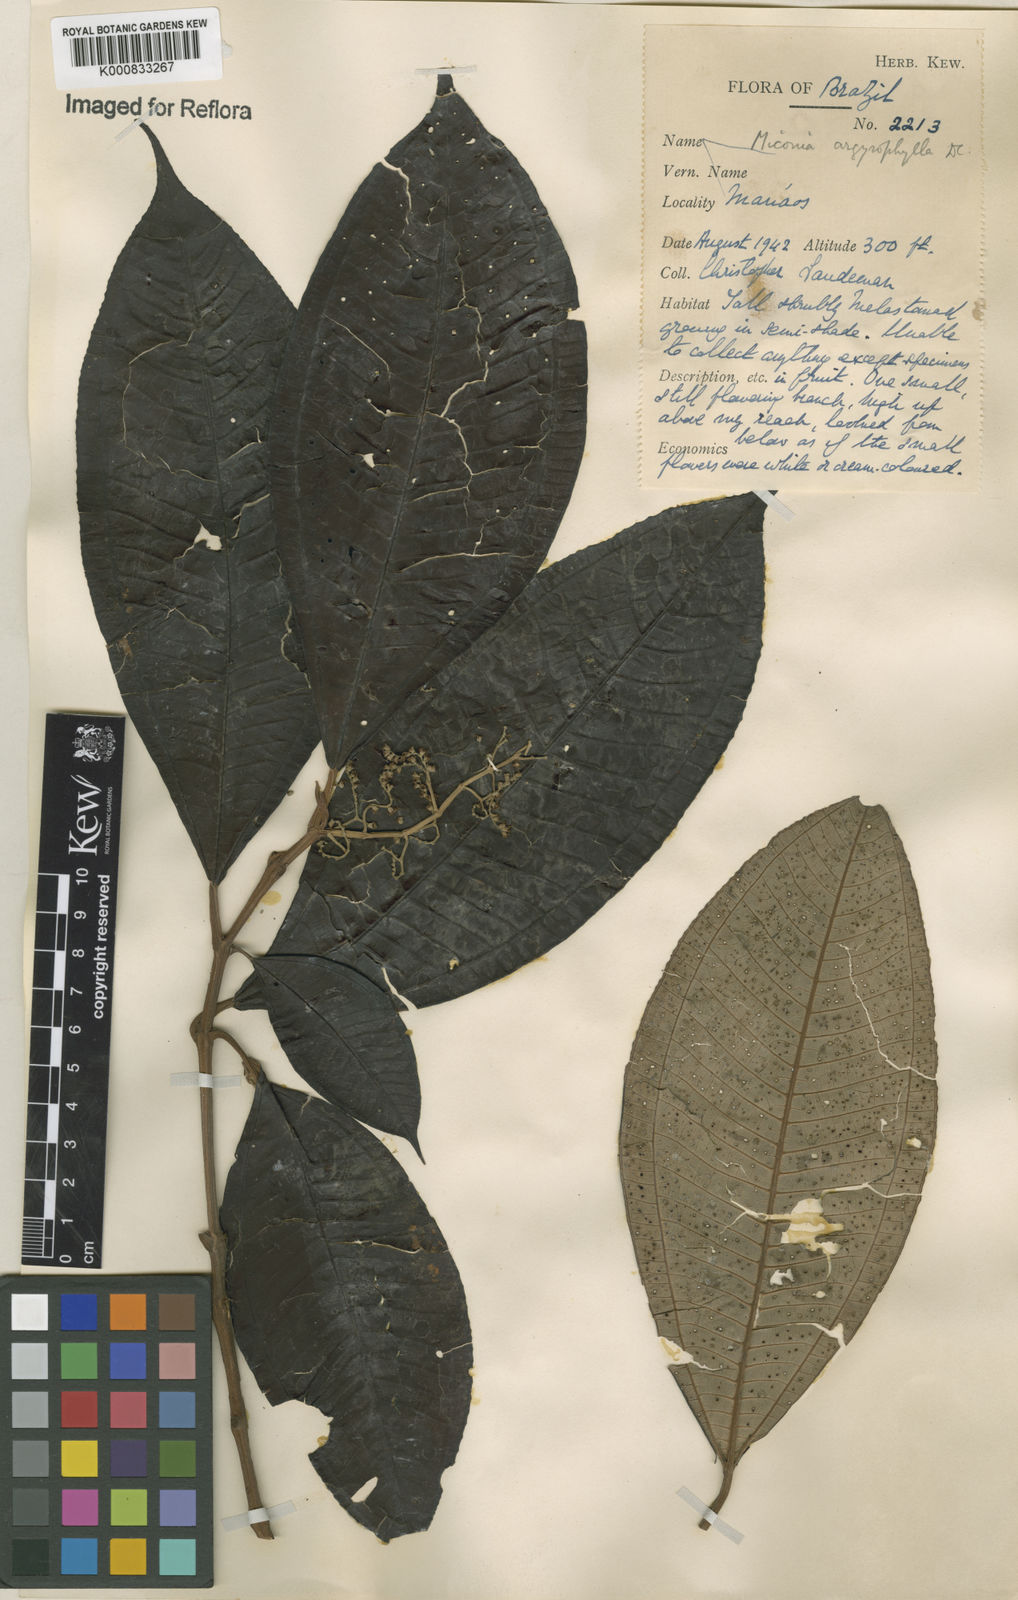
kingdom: Plantae
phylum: Tracheophyta
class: Magnoliopsida
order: Myrtales
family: Melastomataceae
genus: Miconia
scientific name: Miconia argyrophylla
